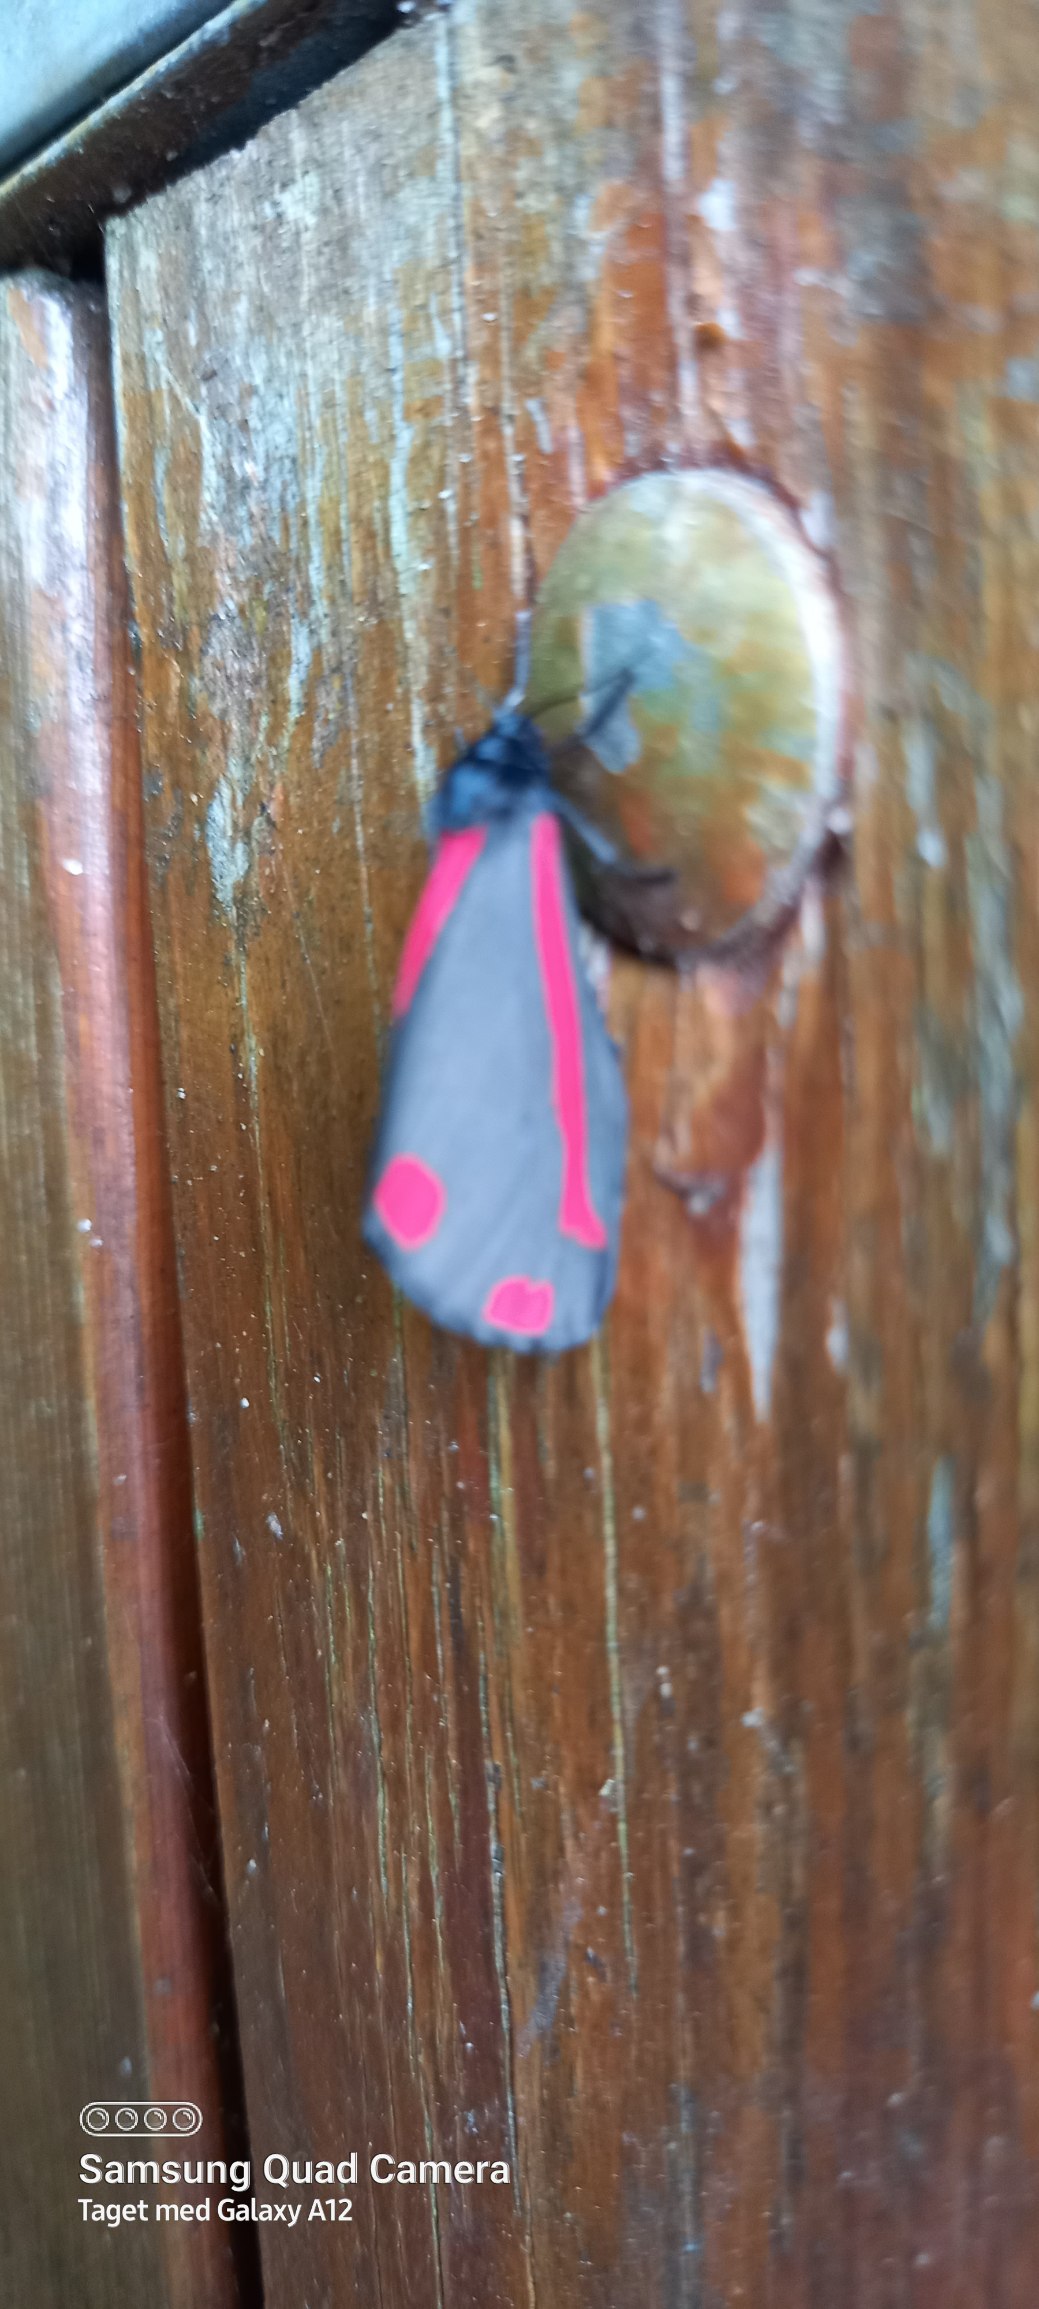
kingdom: Animalia
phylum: Arthropoda
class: Insecta
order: Lepidoptera
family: Erebidae
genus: Tyria
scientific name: Tyria jacobaeae
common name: Blodplet
